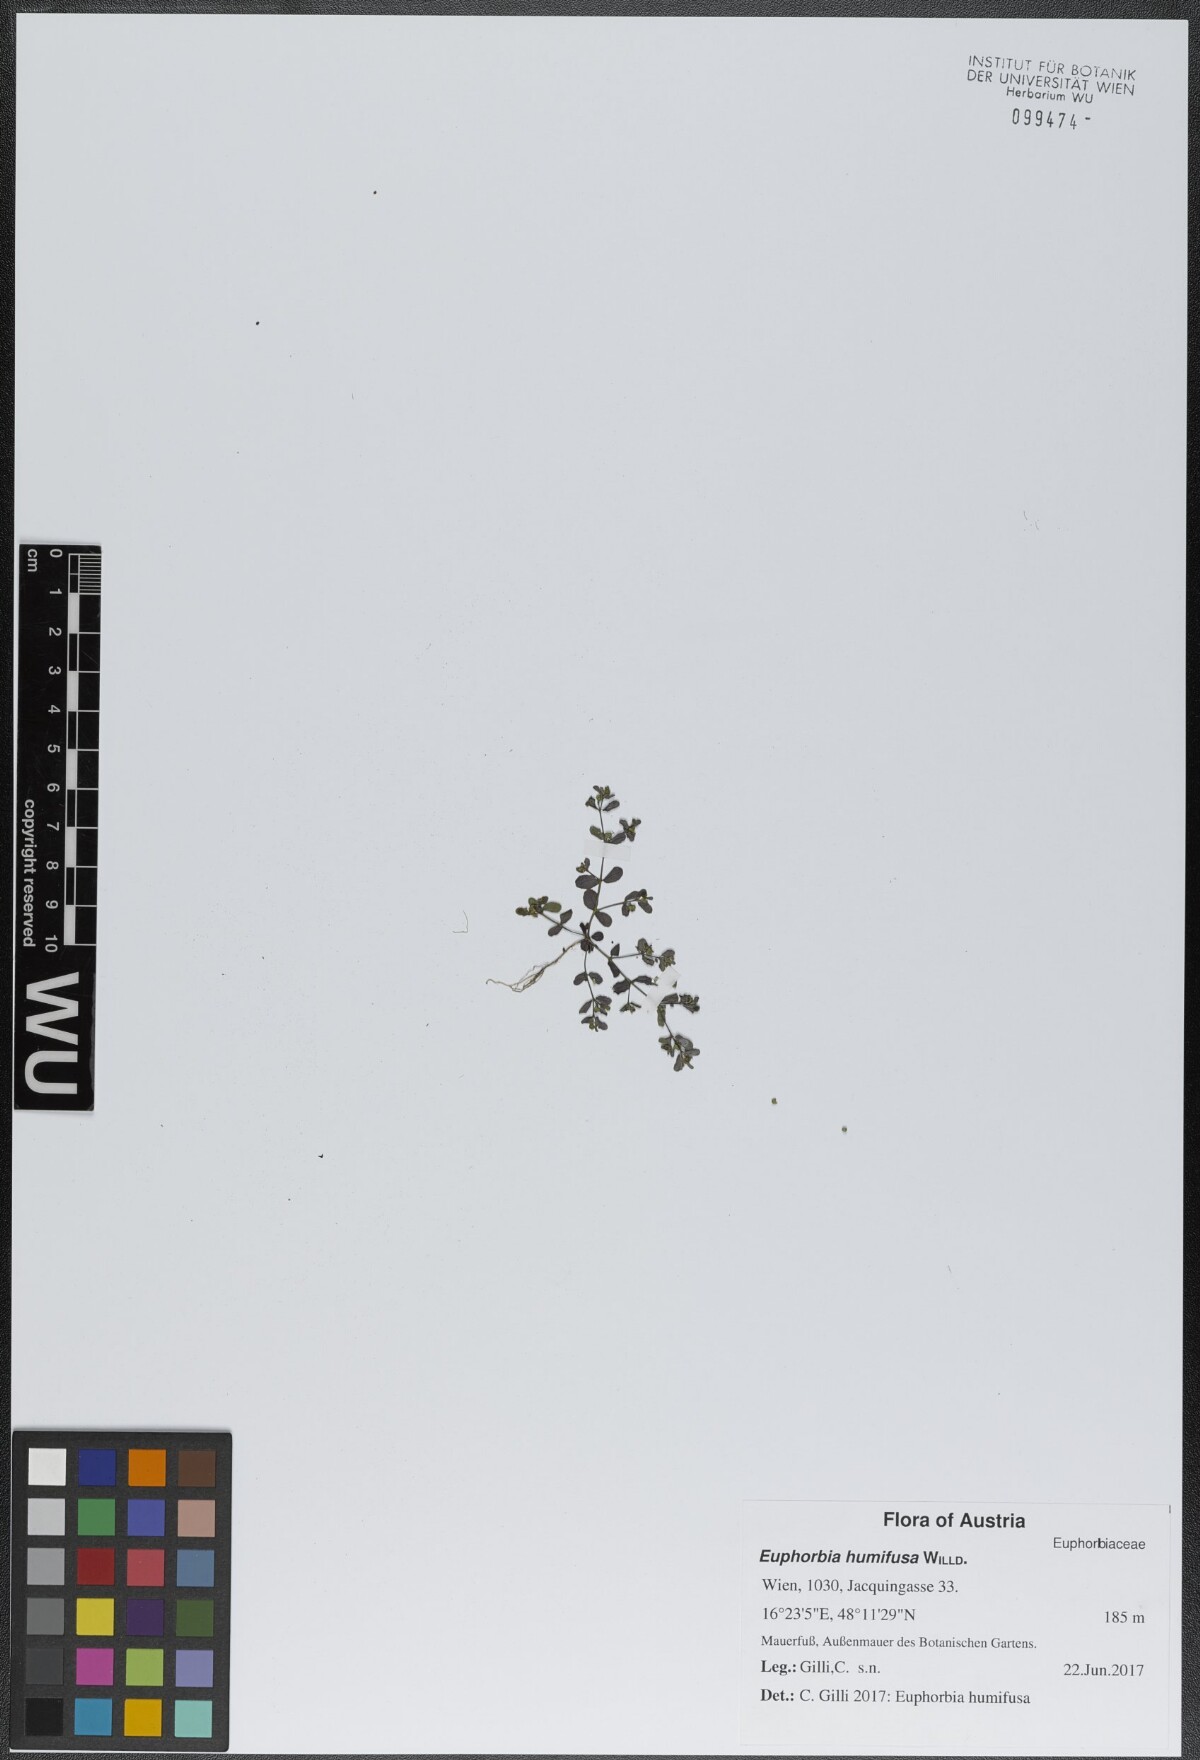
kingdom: Plantae
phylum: Tracheophyta
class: Magnoliopsida
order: Malpighiales
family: Euphorbiaceae
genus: Euphorbia
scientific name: Euphorbia humifusa
